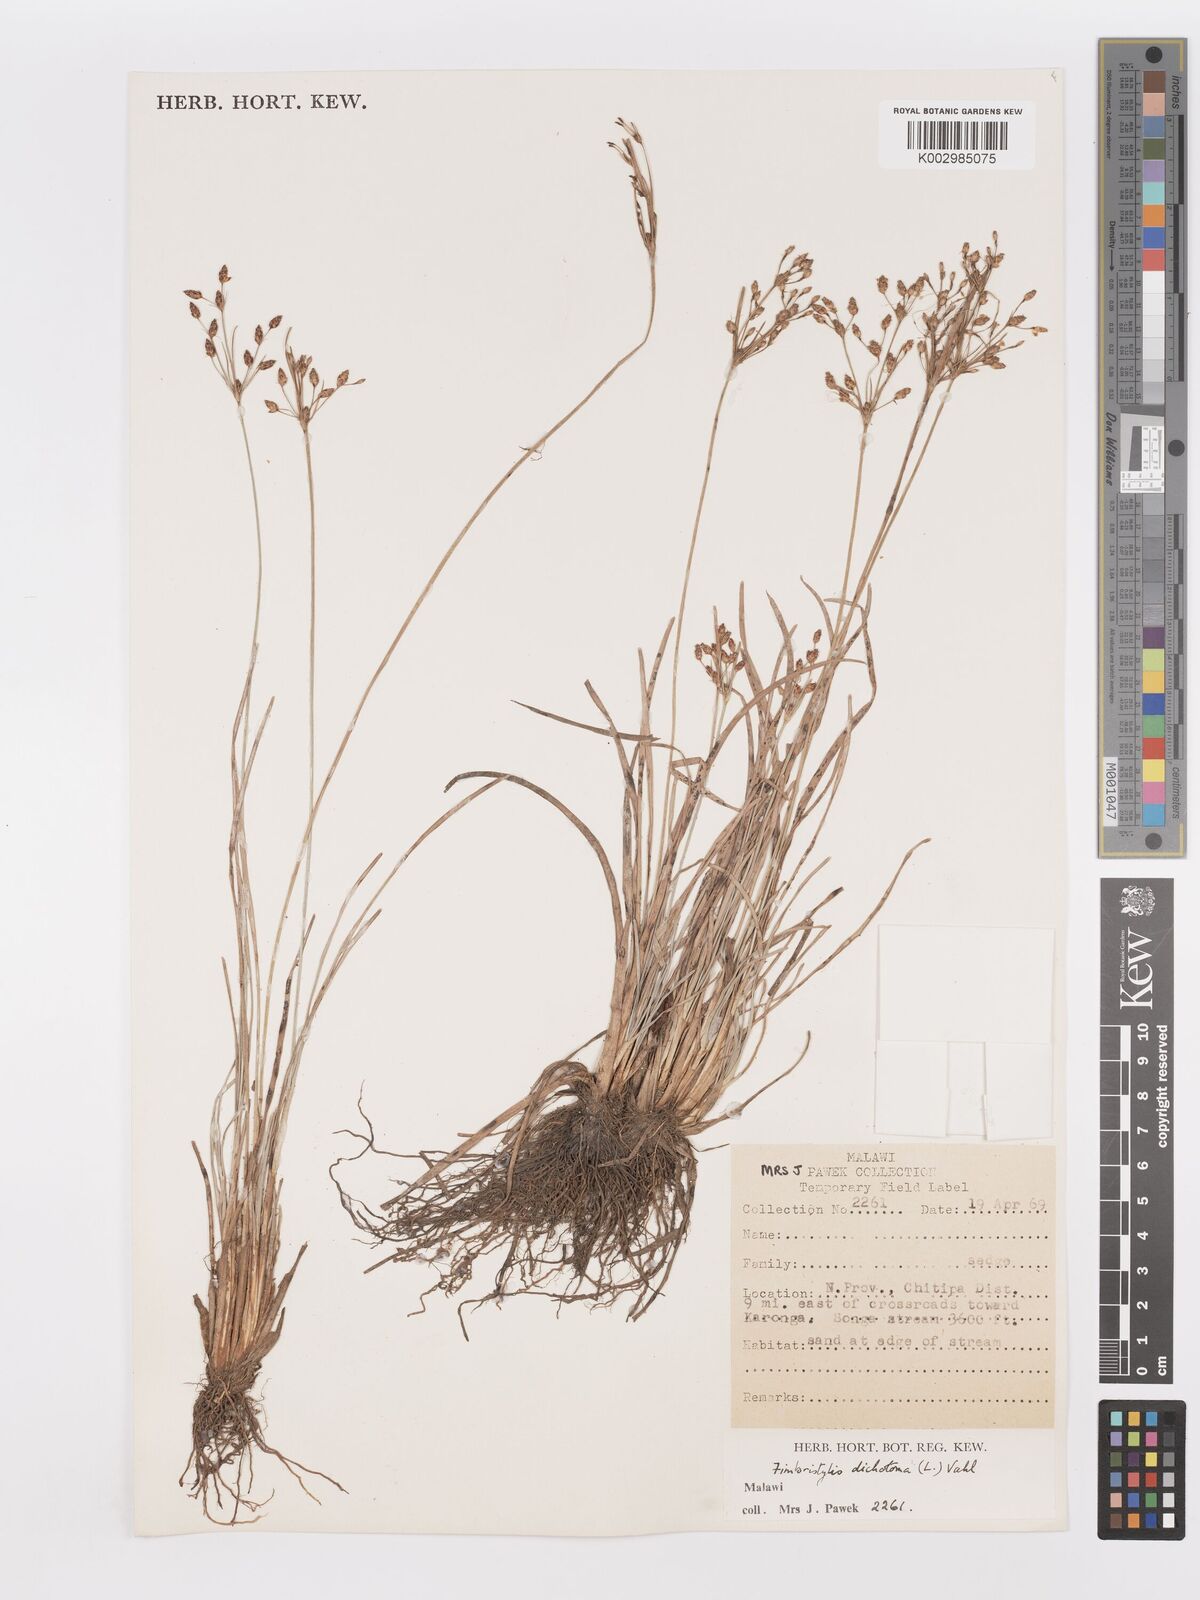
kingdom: Plantae
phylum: Tracheophyta
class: Liliopsida
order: Poales
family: Cyperaceae
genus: Fimbristylis
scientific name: Fimbristylis dichotoma
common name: Forked fimbry
